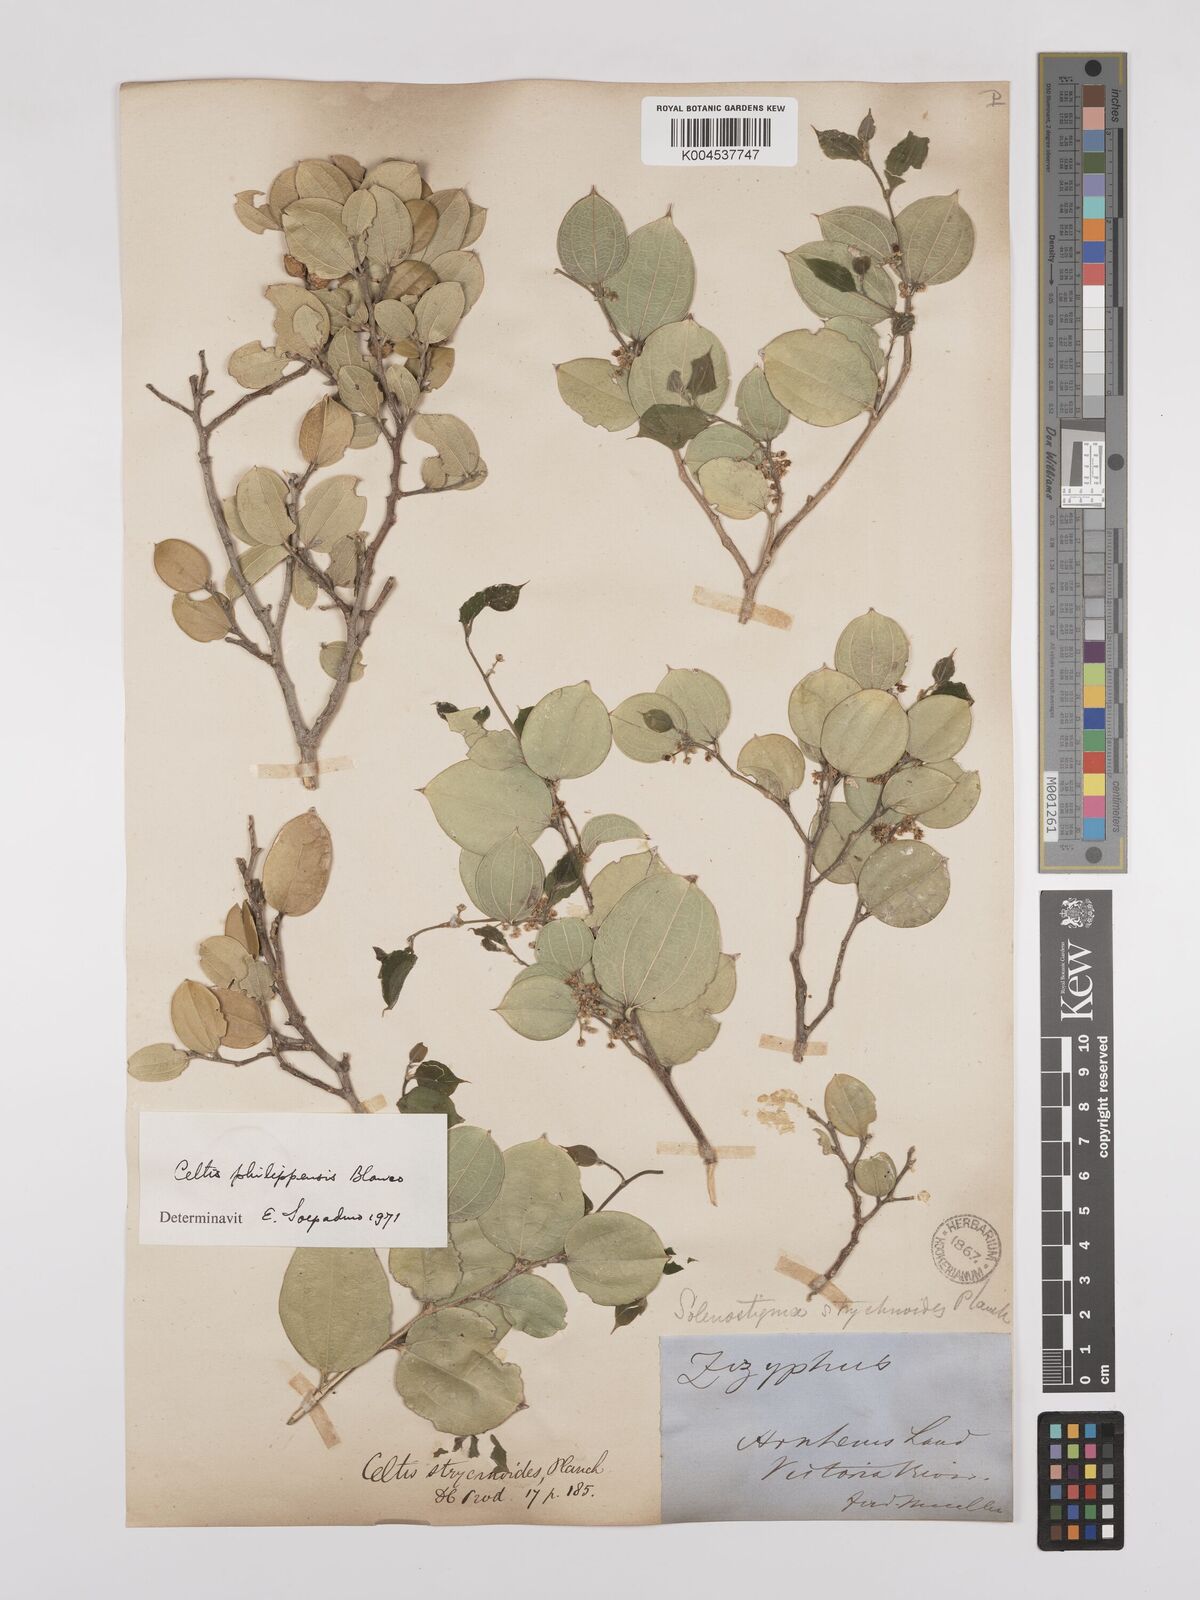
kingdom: Plantae
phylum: Tracheophyta
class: Magnoliopsida
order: Rosales
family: Cannabaceae
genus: Celtis
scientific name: Celtis philippensis
